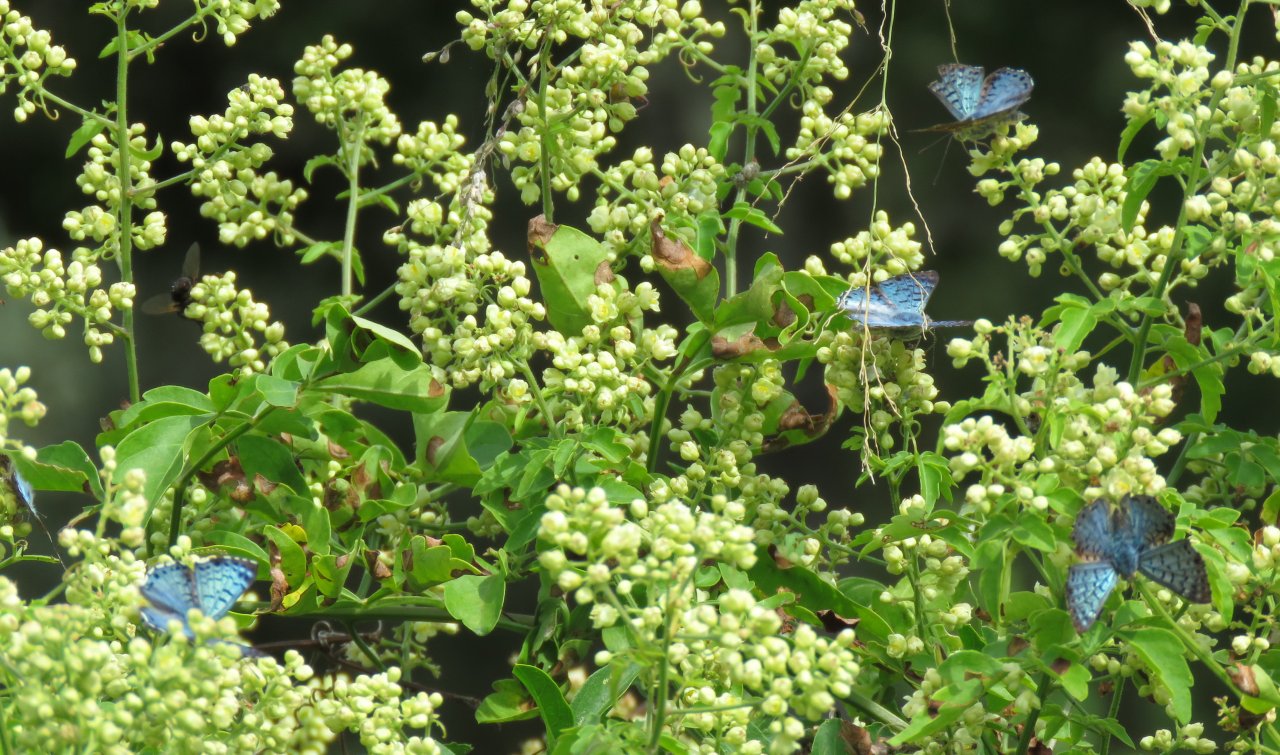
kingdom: Animalia
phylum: Arthropoda
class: Insecta
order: Lepidoptera
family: Riodinidae
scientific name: Riodinidae
